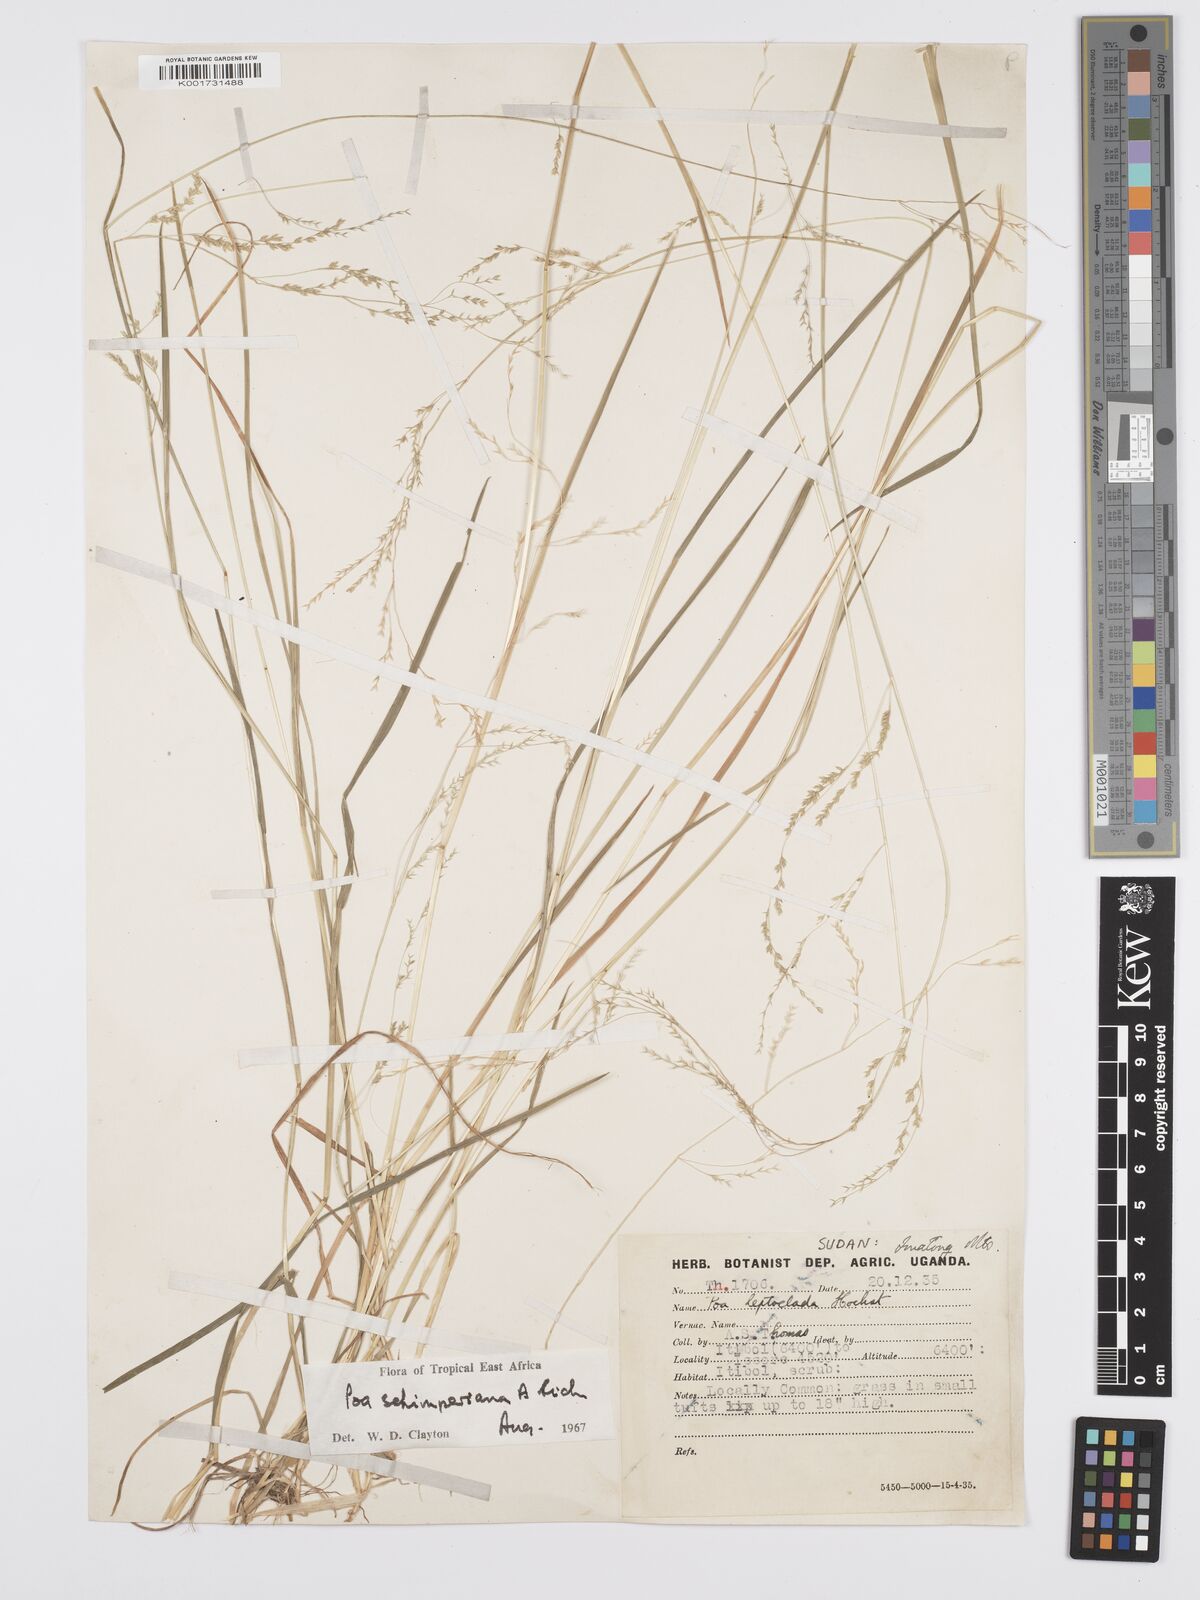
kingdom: Plantae
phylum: Tracheophyta
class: Liliopsida
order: Poales
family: Poaceae
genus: Poa
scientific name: Poa schimperiana
